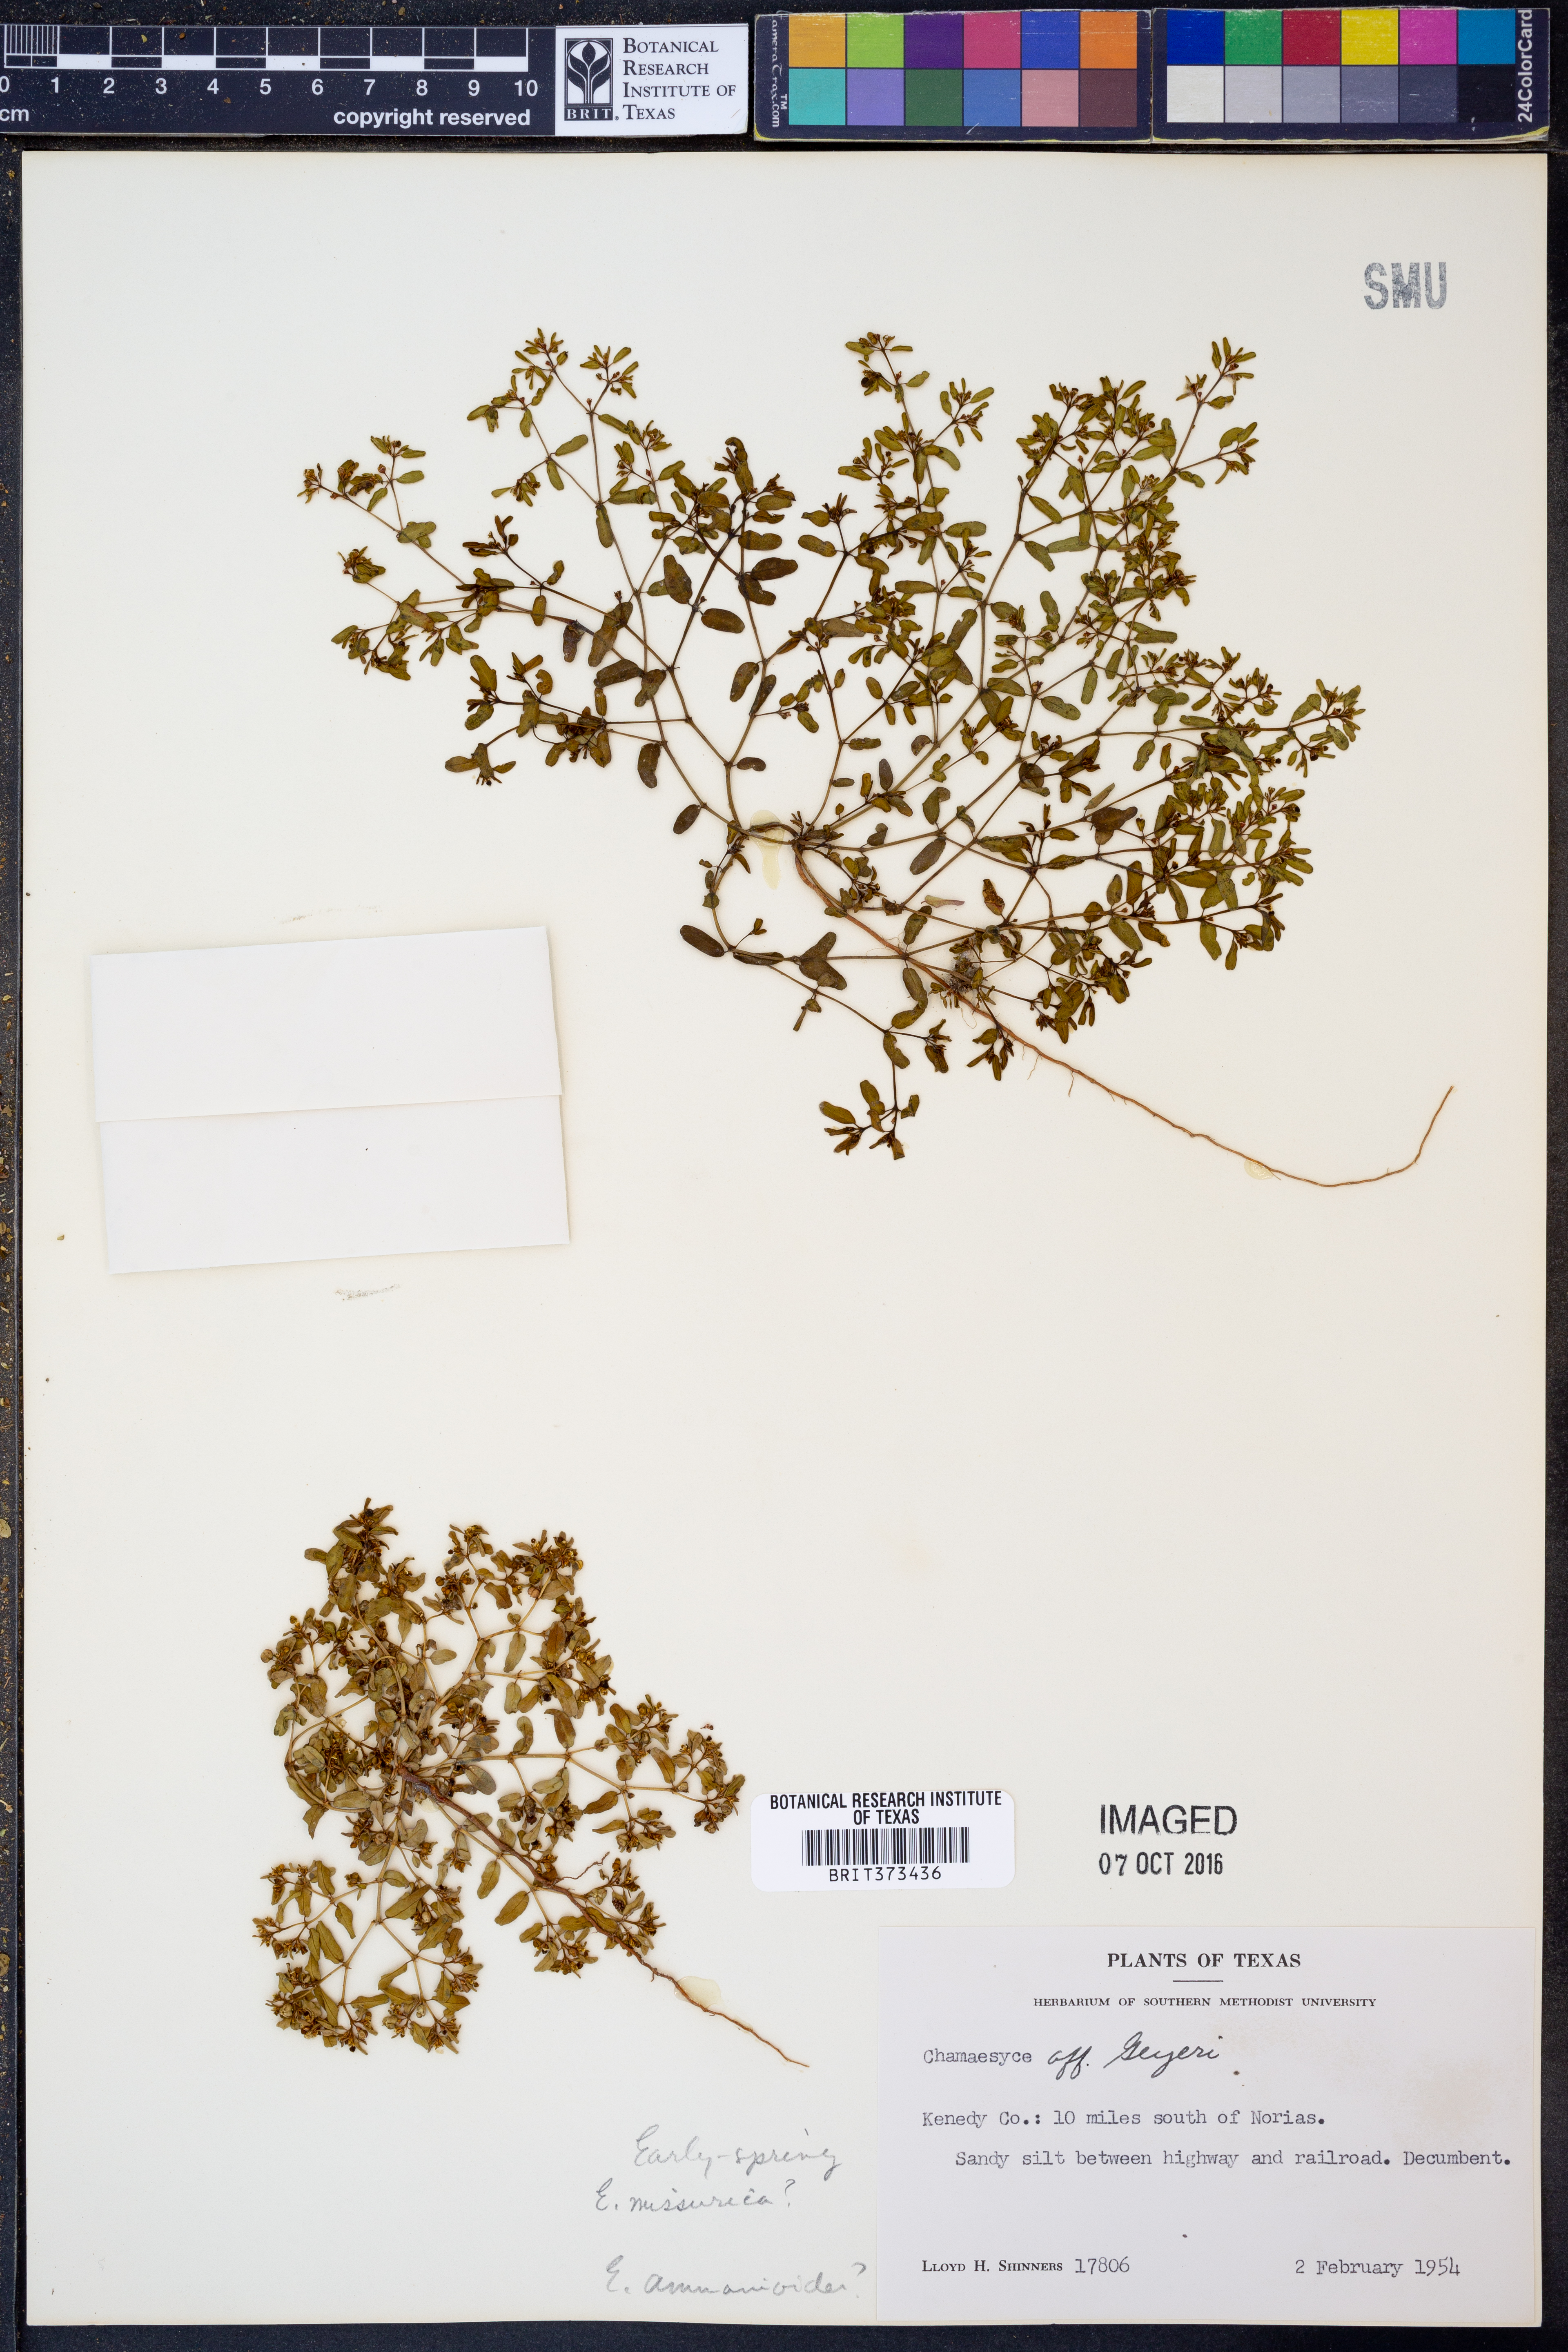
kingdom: Plantae
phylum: Tracheophyta
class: Magnoliopsida
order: Malpighiales
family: Euphorbiaceae
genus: Euphorbia
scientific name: Euphorbia geyeri
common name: Geyer's spurge
